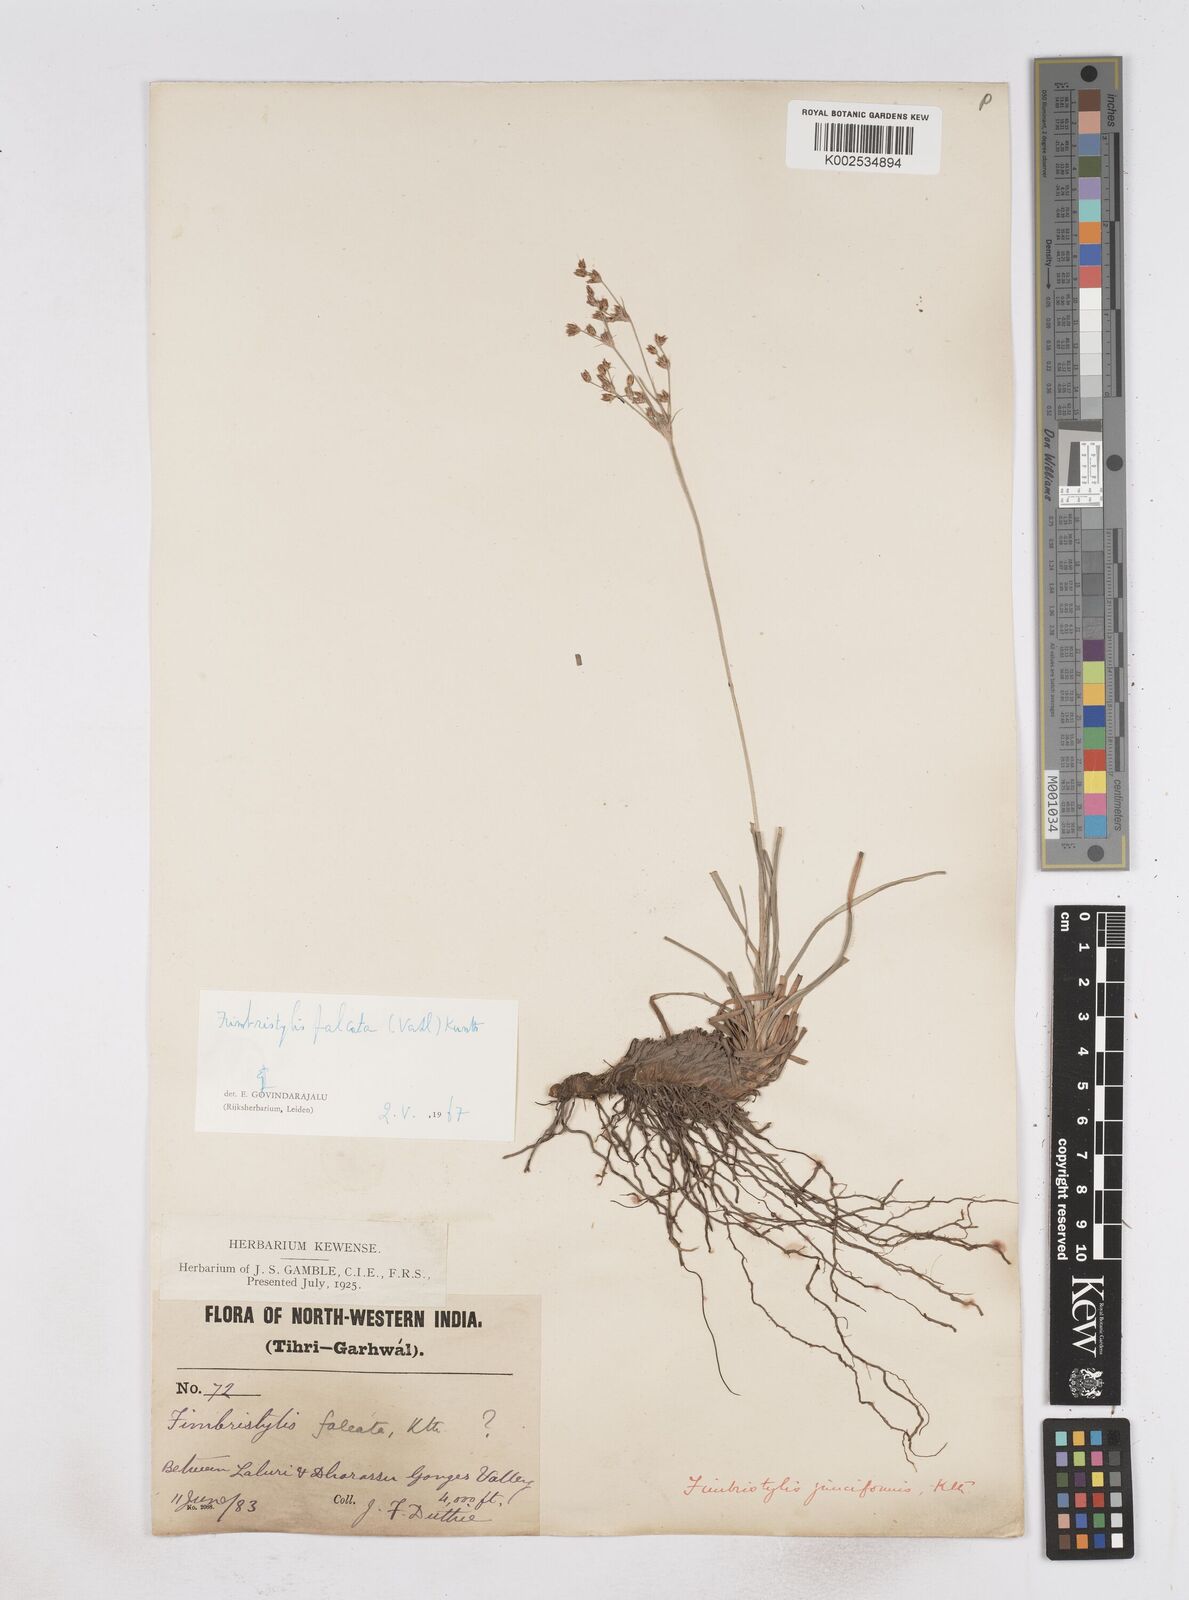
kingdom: Plantae
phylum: Tracheophyta
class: Liliopsida
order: Poales
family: Cyperaceae
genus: Fimbristylis
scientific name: Fimbristylis falcata
